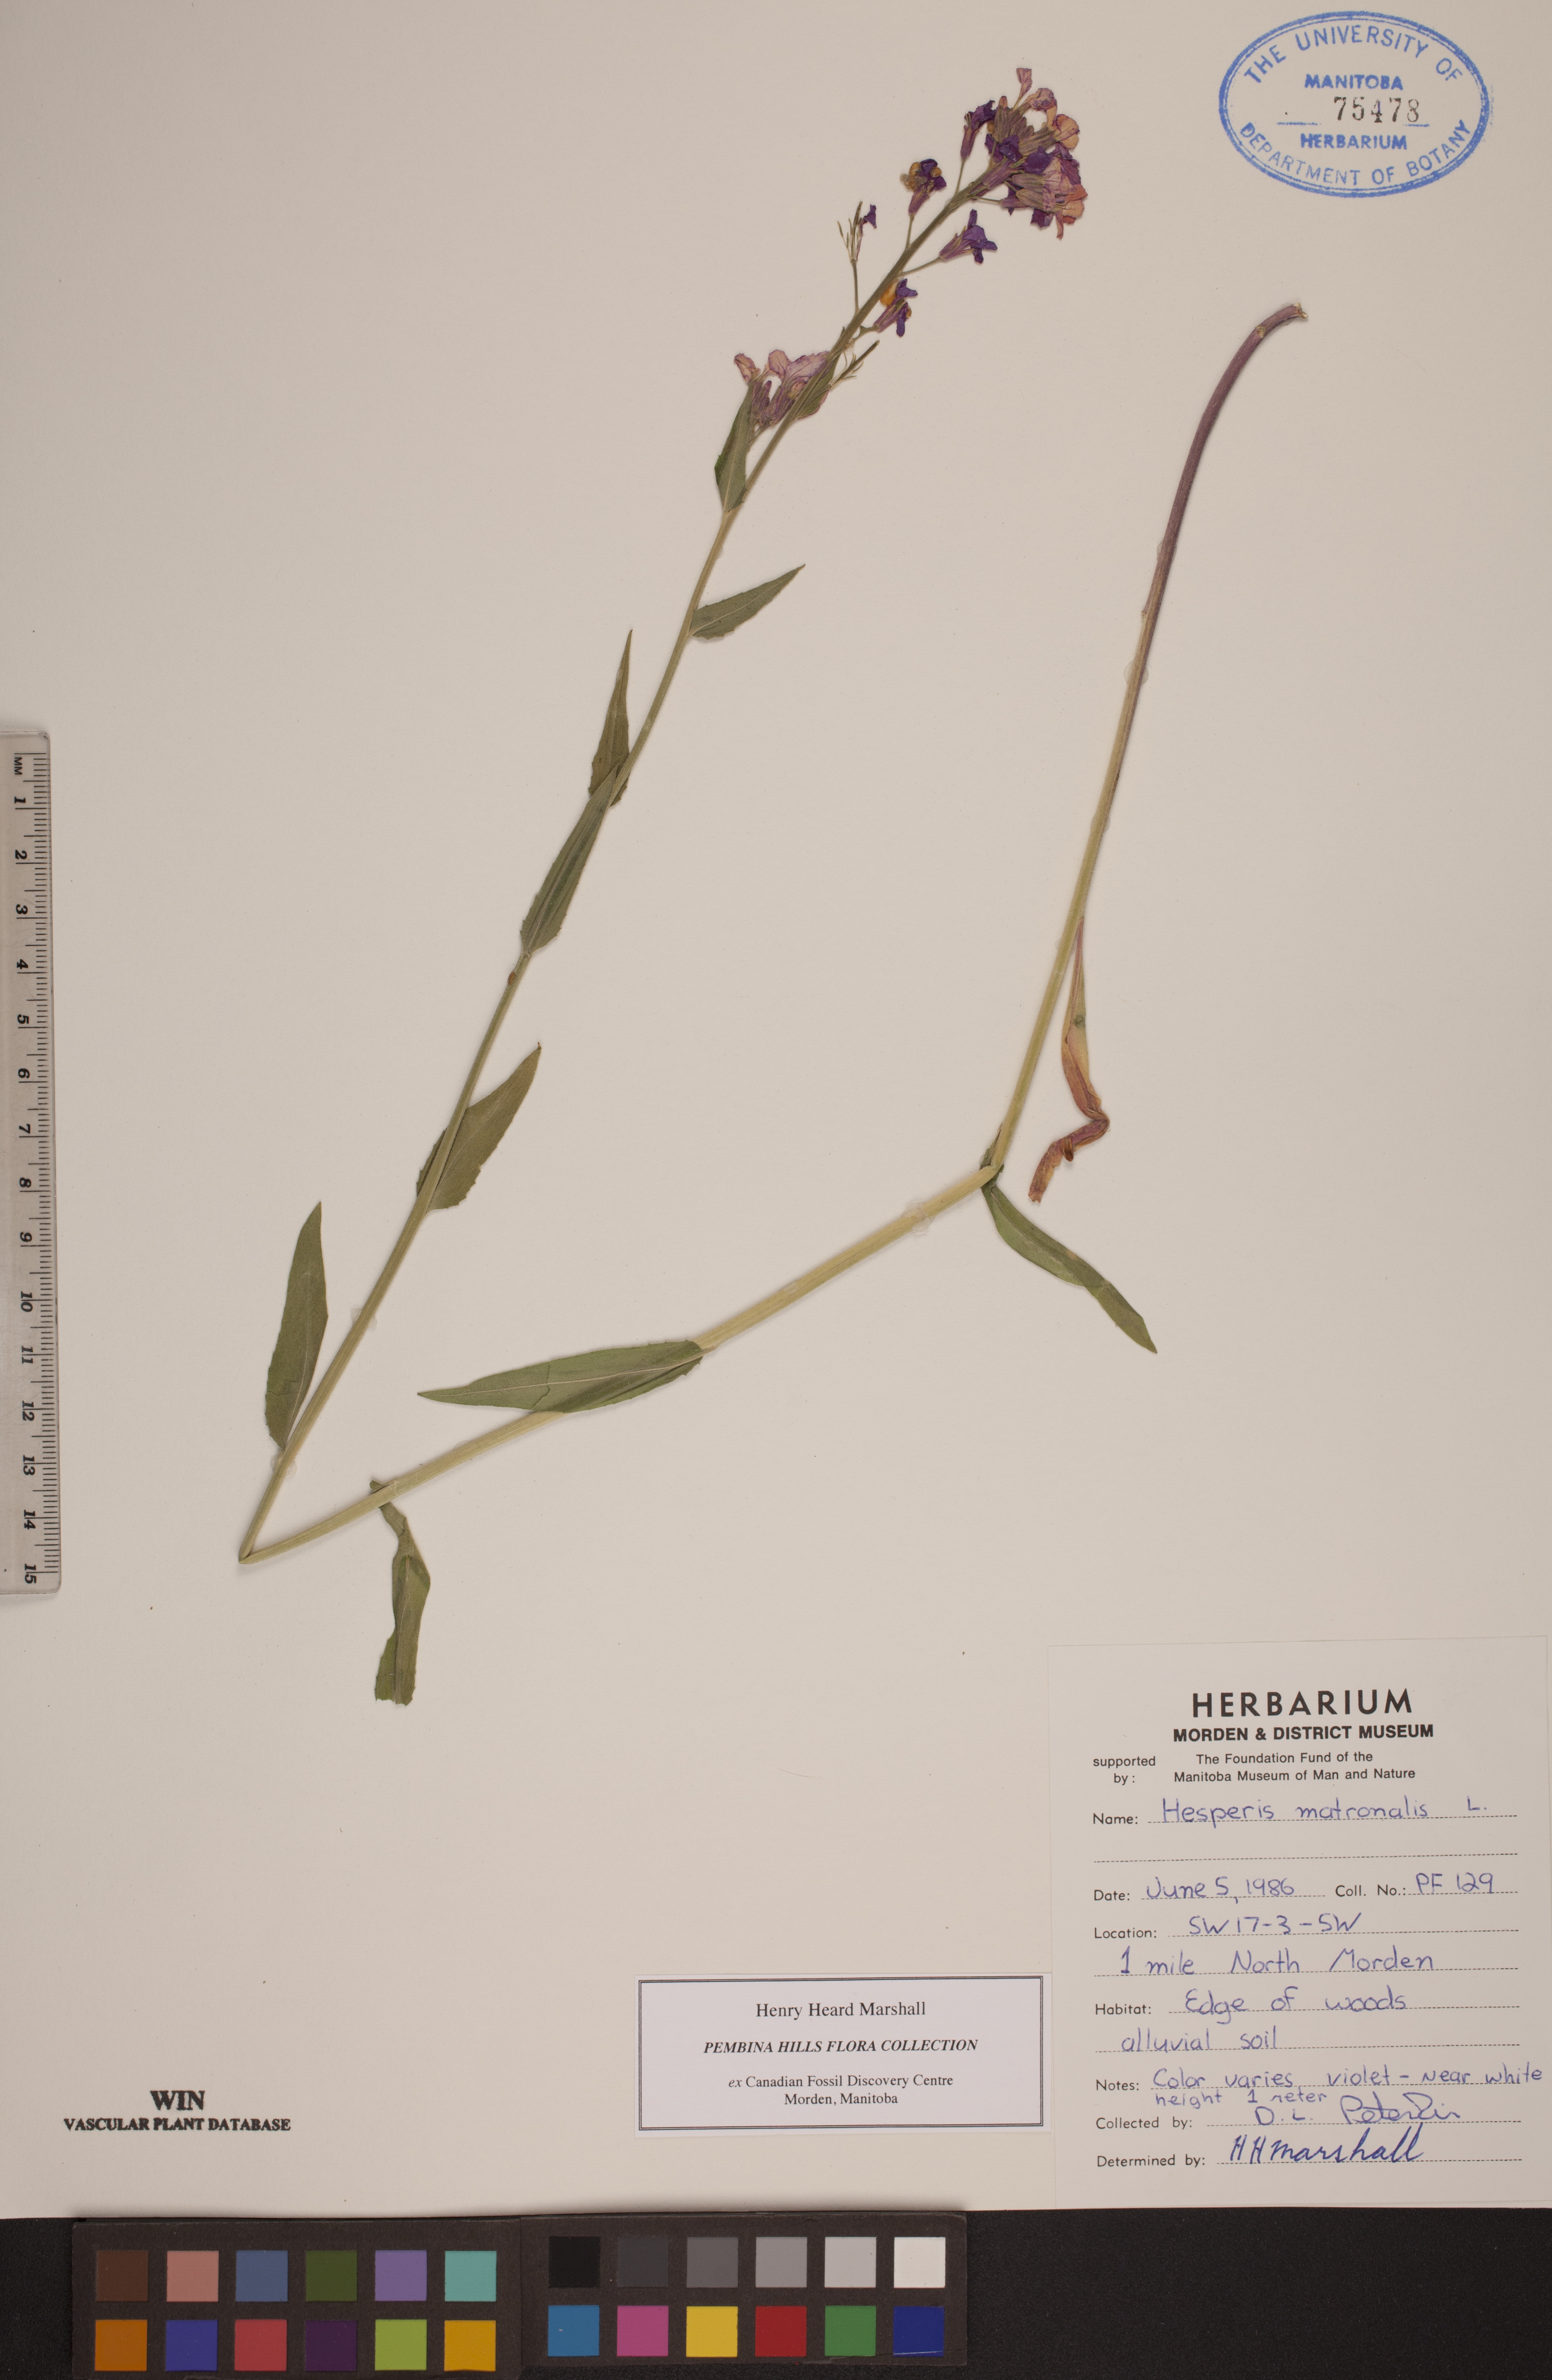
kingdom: Plantae
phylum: Tracheophyta
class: Magnoliopsida
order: Brassicales
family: Brassicaceae
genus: Hesperis
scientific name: Hesperis matronalis
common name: Dame's-violet
